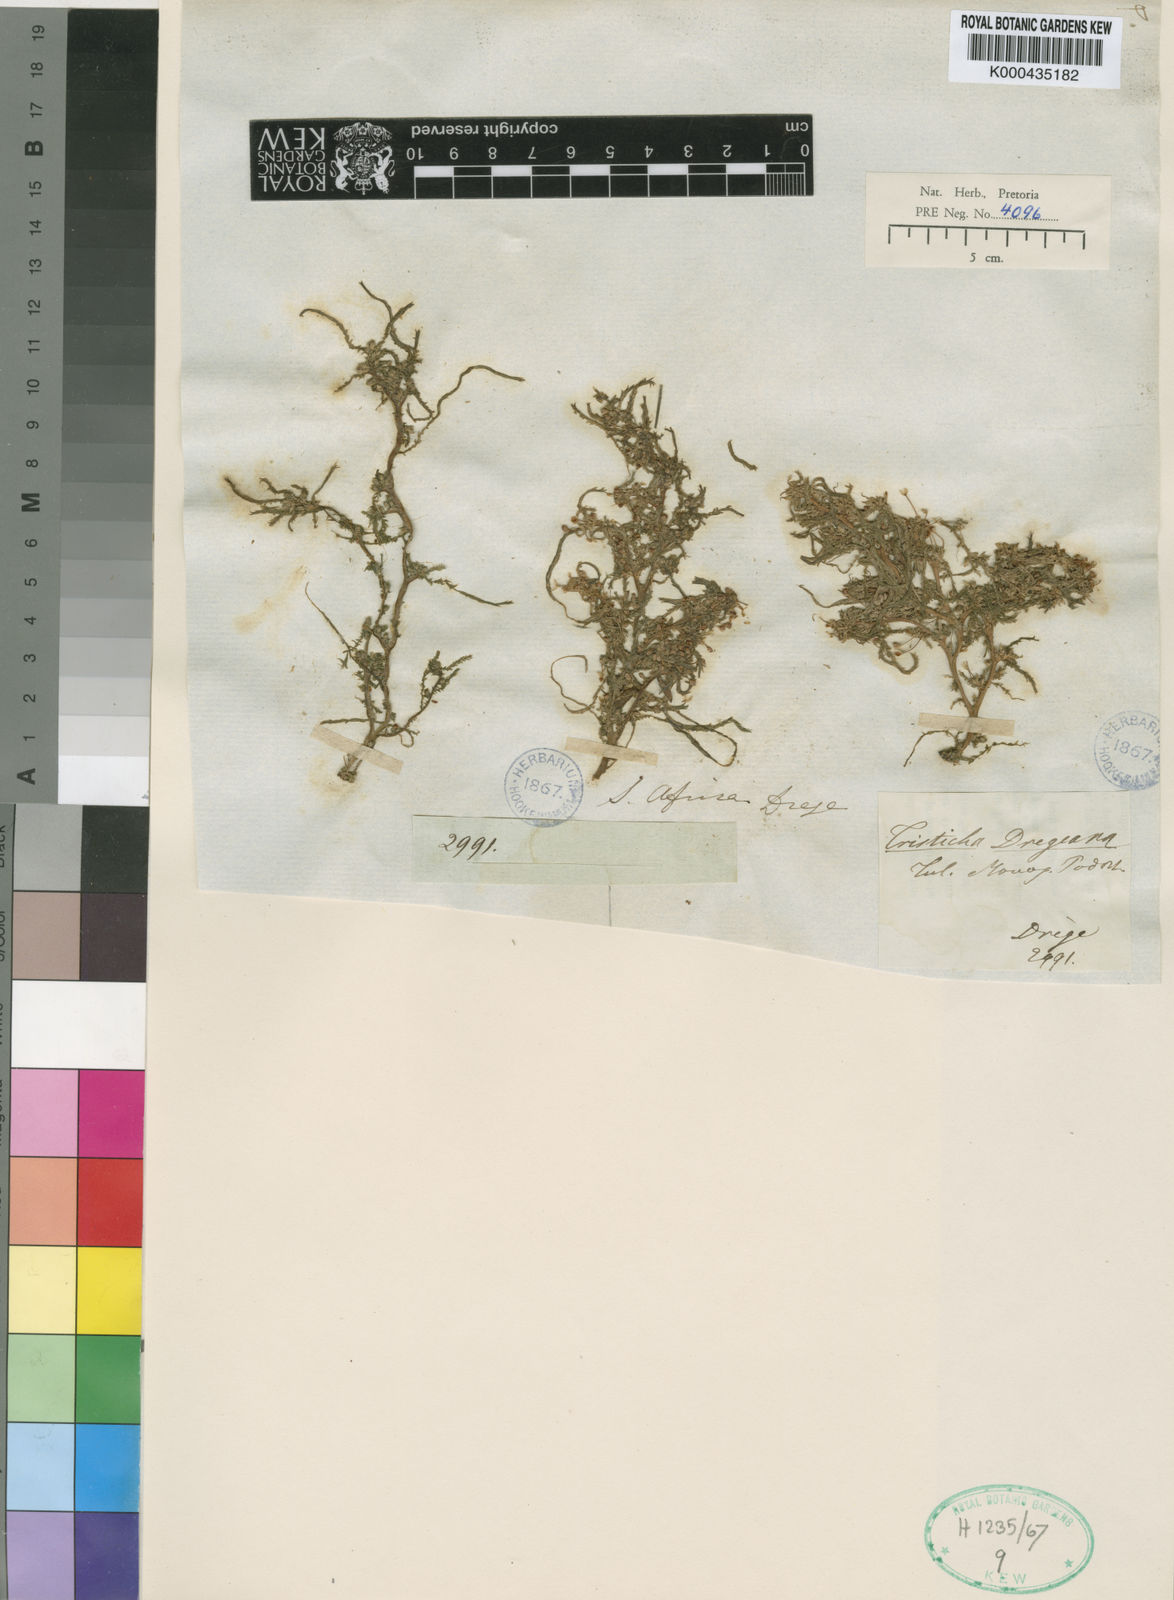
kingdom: Plantae
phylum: Tracheophyta
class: Magnoliopsida
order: Malpighiales
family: Podostemaceae
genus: Tristicha
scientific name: Tristicha trifaria
